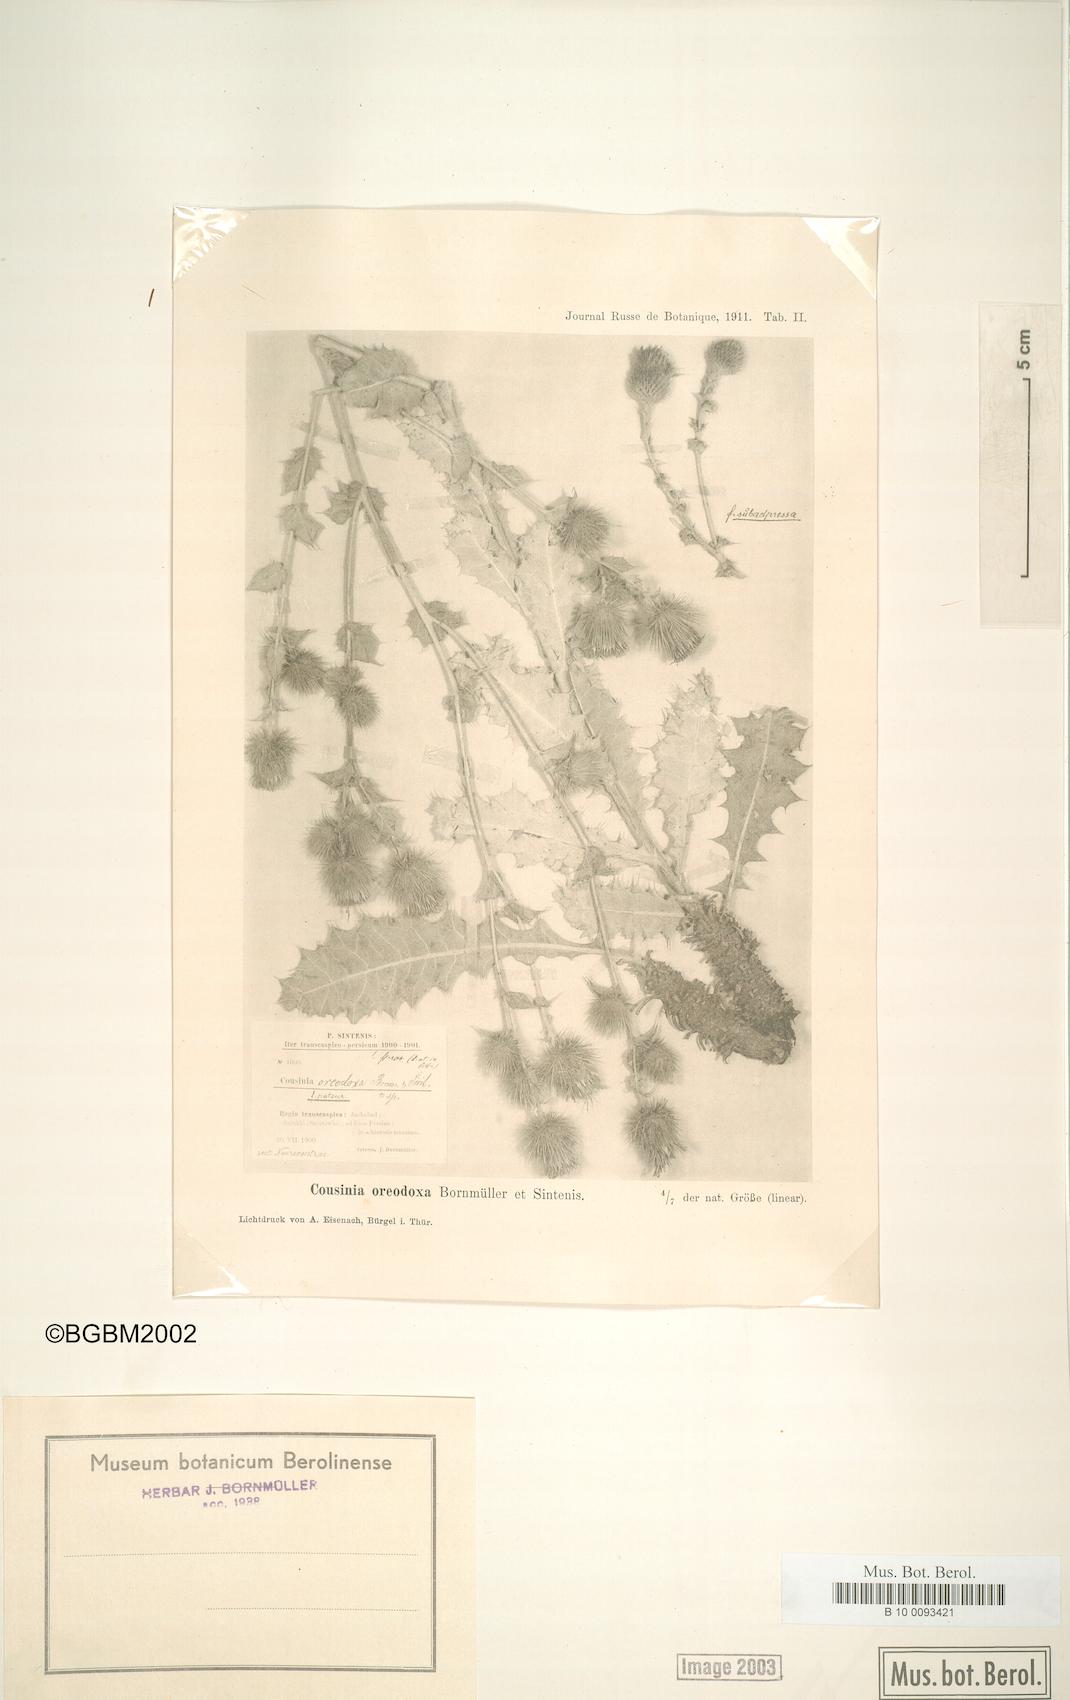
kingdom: Plantae
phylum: Tracheophyta
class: Magnoliopsida
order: Asterales
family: Asteraceae
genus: Cousinia
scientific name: Cousinia oreodoxa
